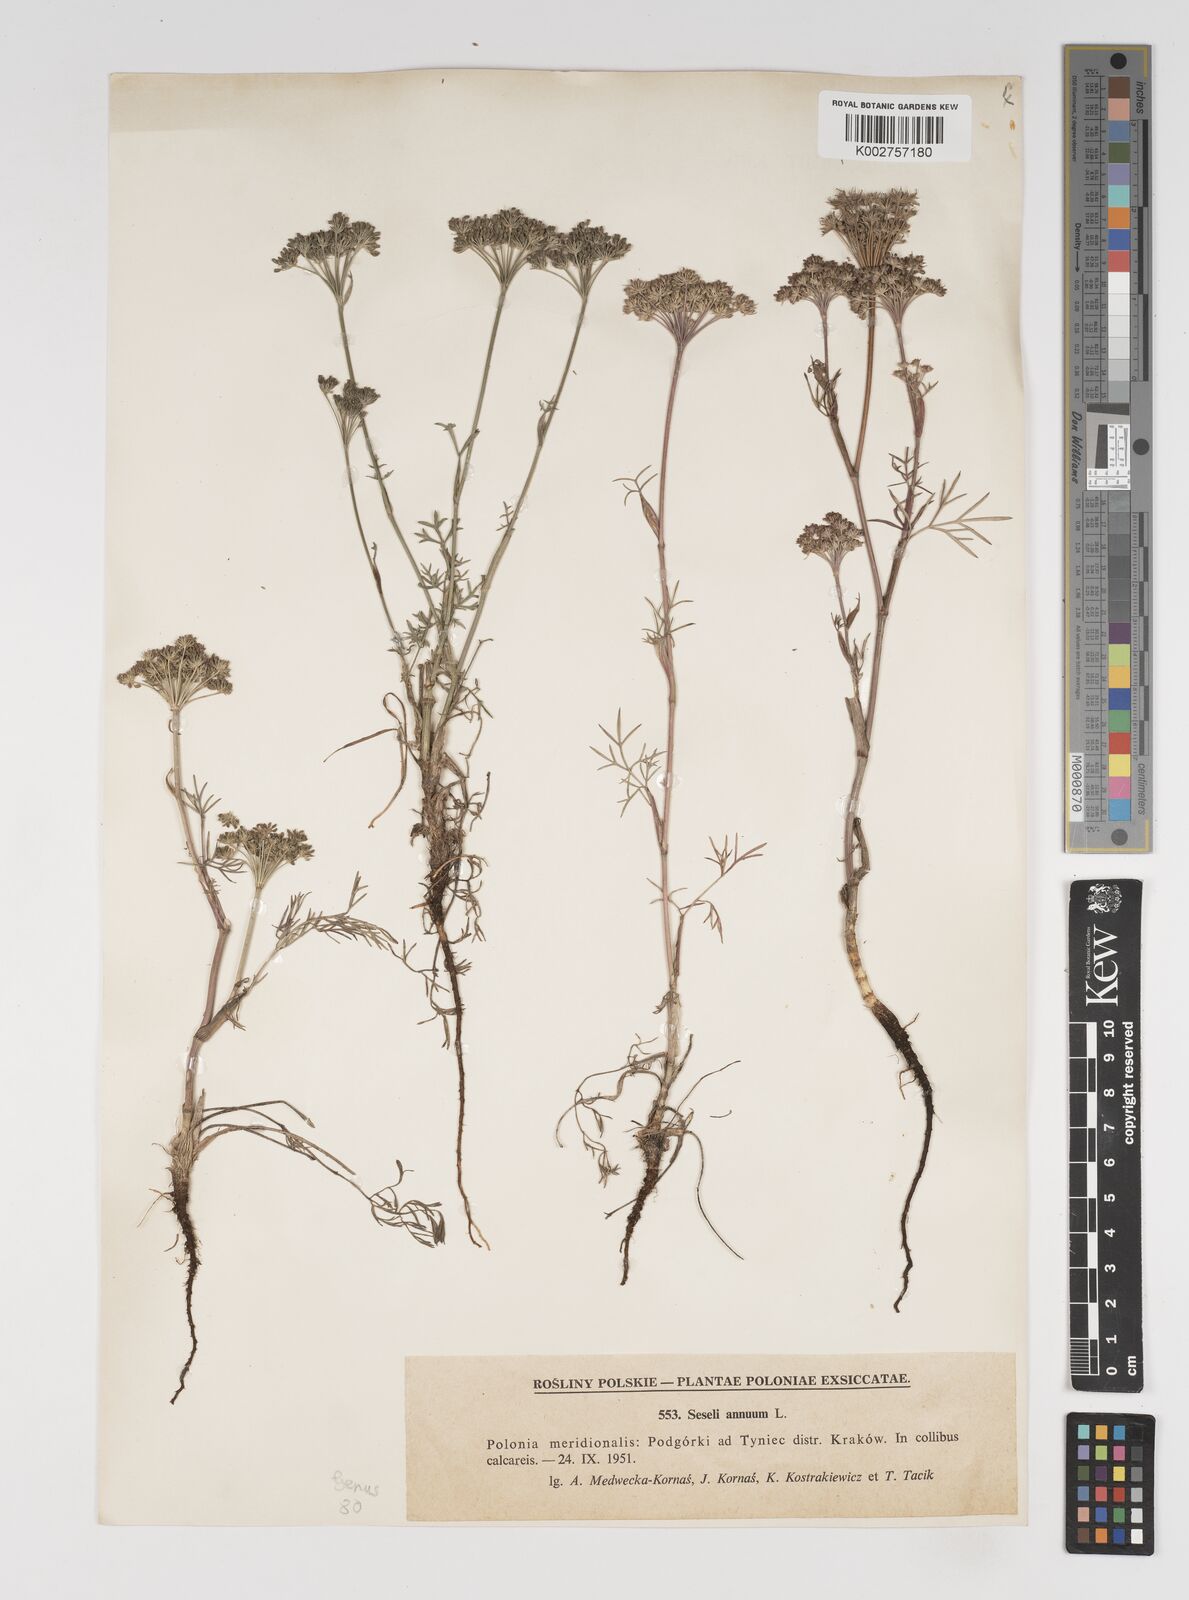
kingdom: Plantae
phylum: Tracheophyta
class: Magnoliopsida
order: Apiales
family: Apiaceae
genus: Seseli
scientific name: Seseli annuum
